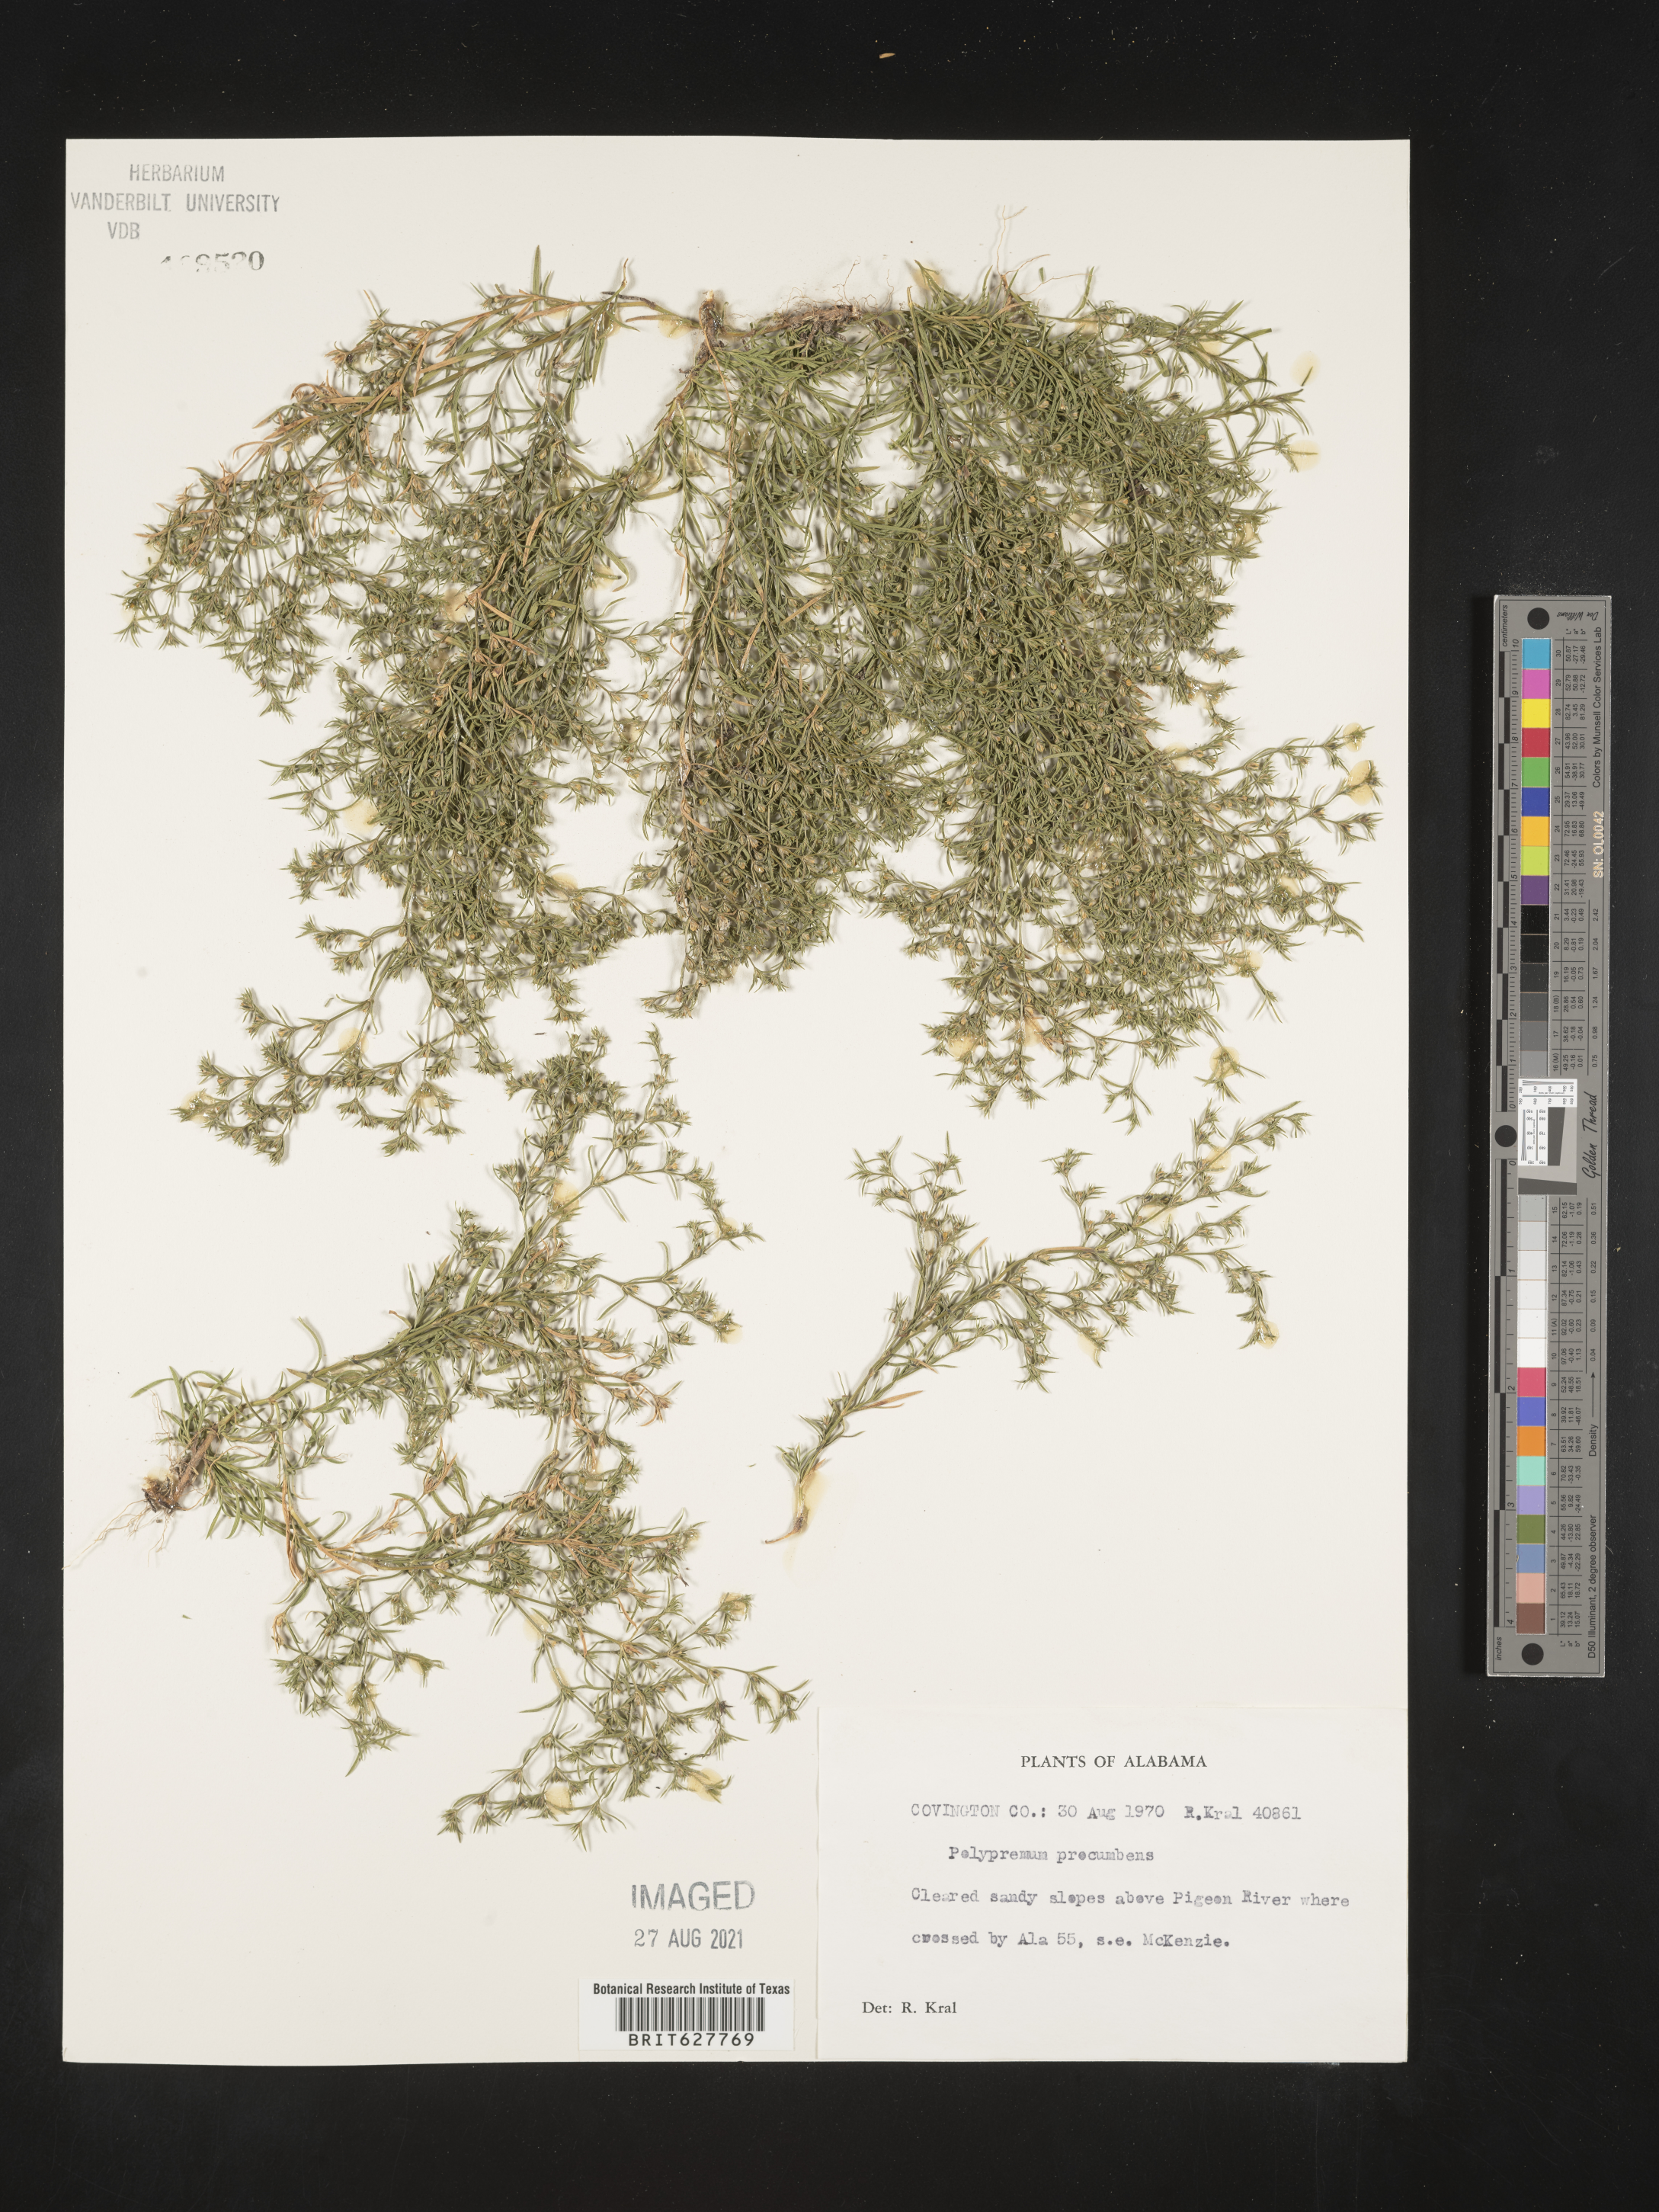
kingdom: Plantae
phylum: Tracheophyta
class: Magnoliopsida
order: Lamiales
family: Tetrachondraceae
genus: Polypremum
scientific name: Polypremum procumbens
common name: Juniper-leaf
